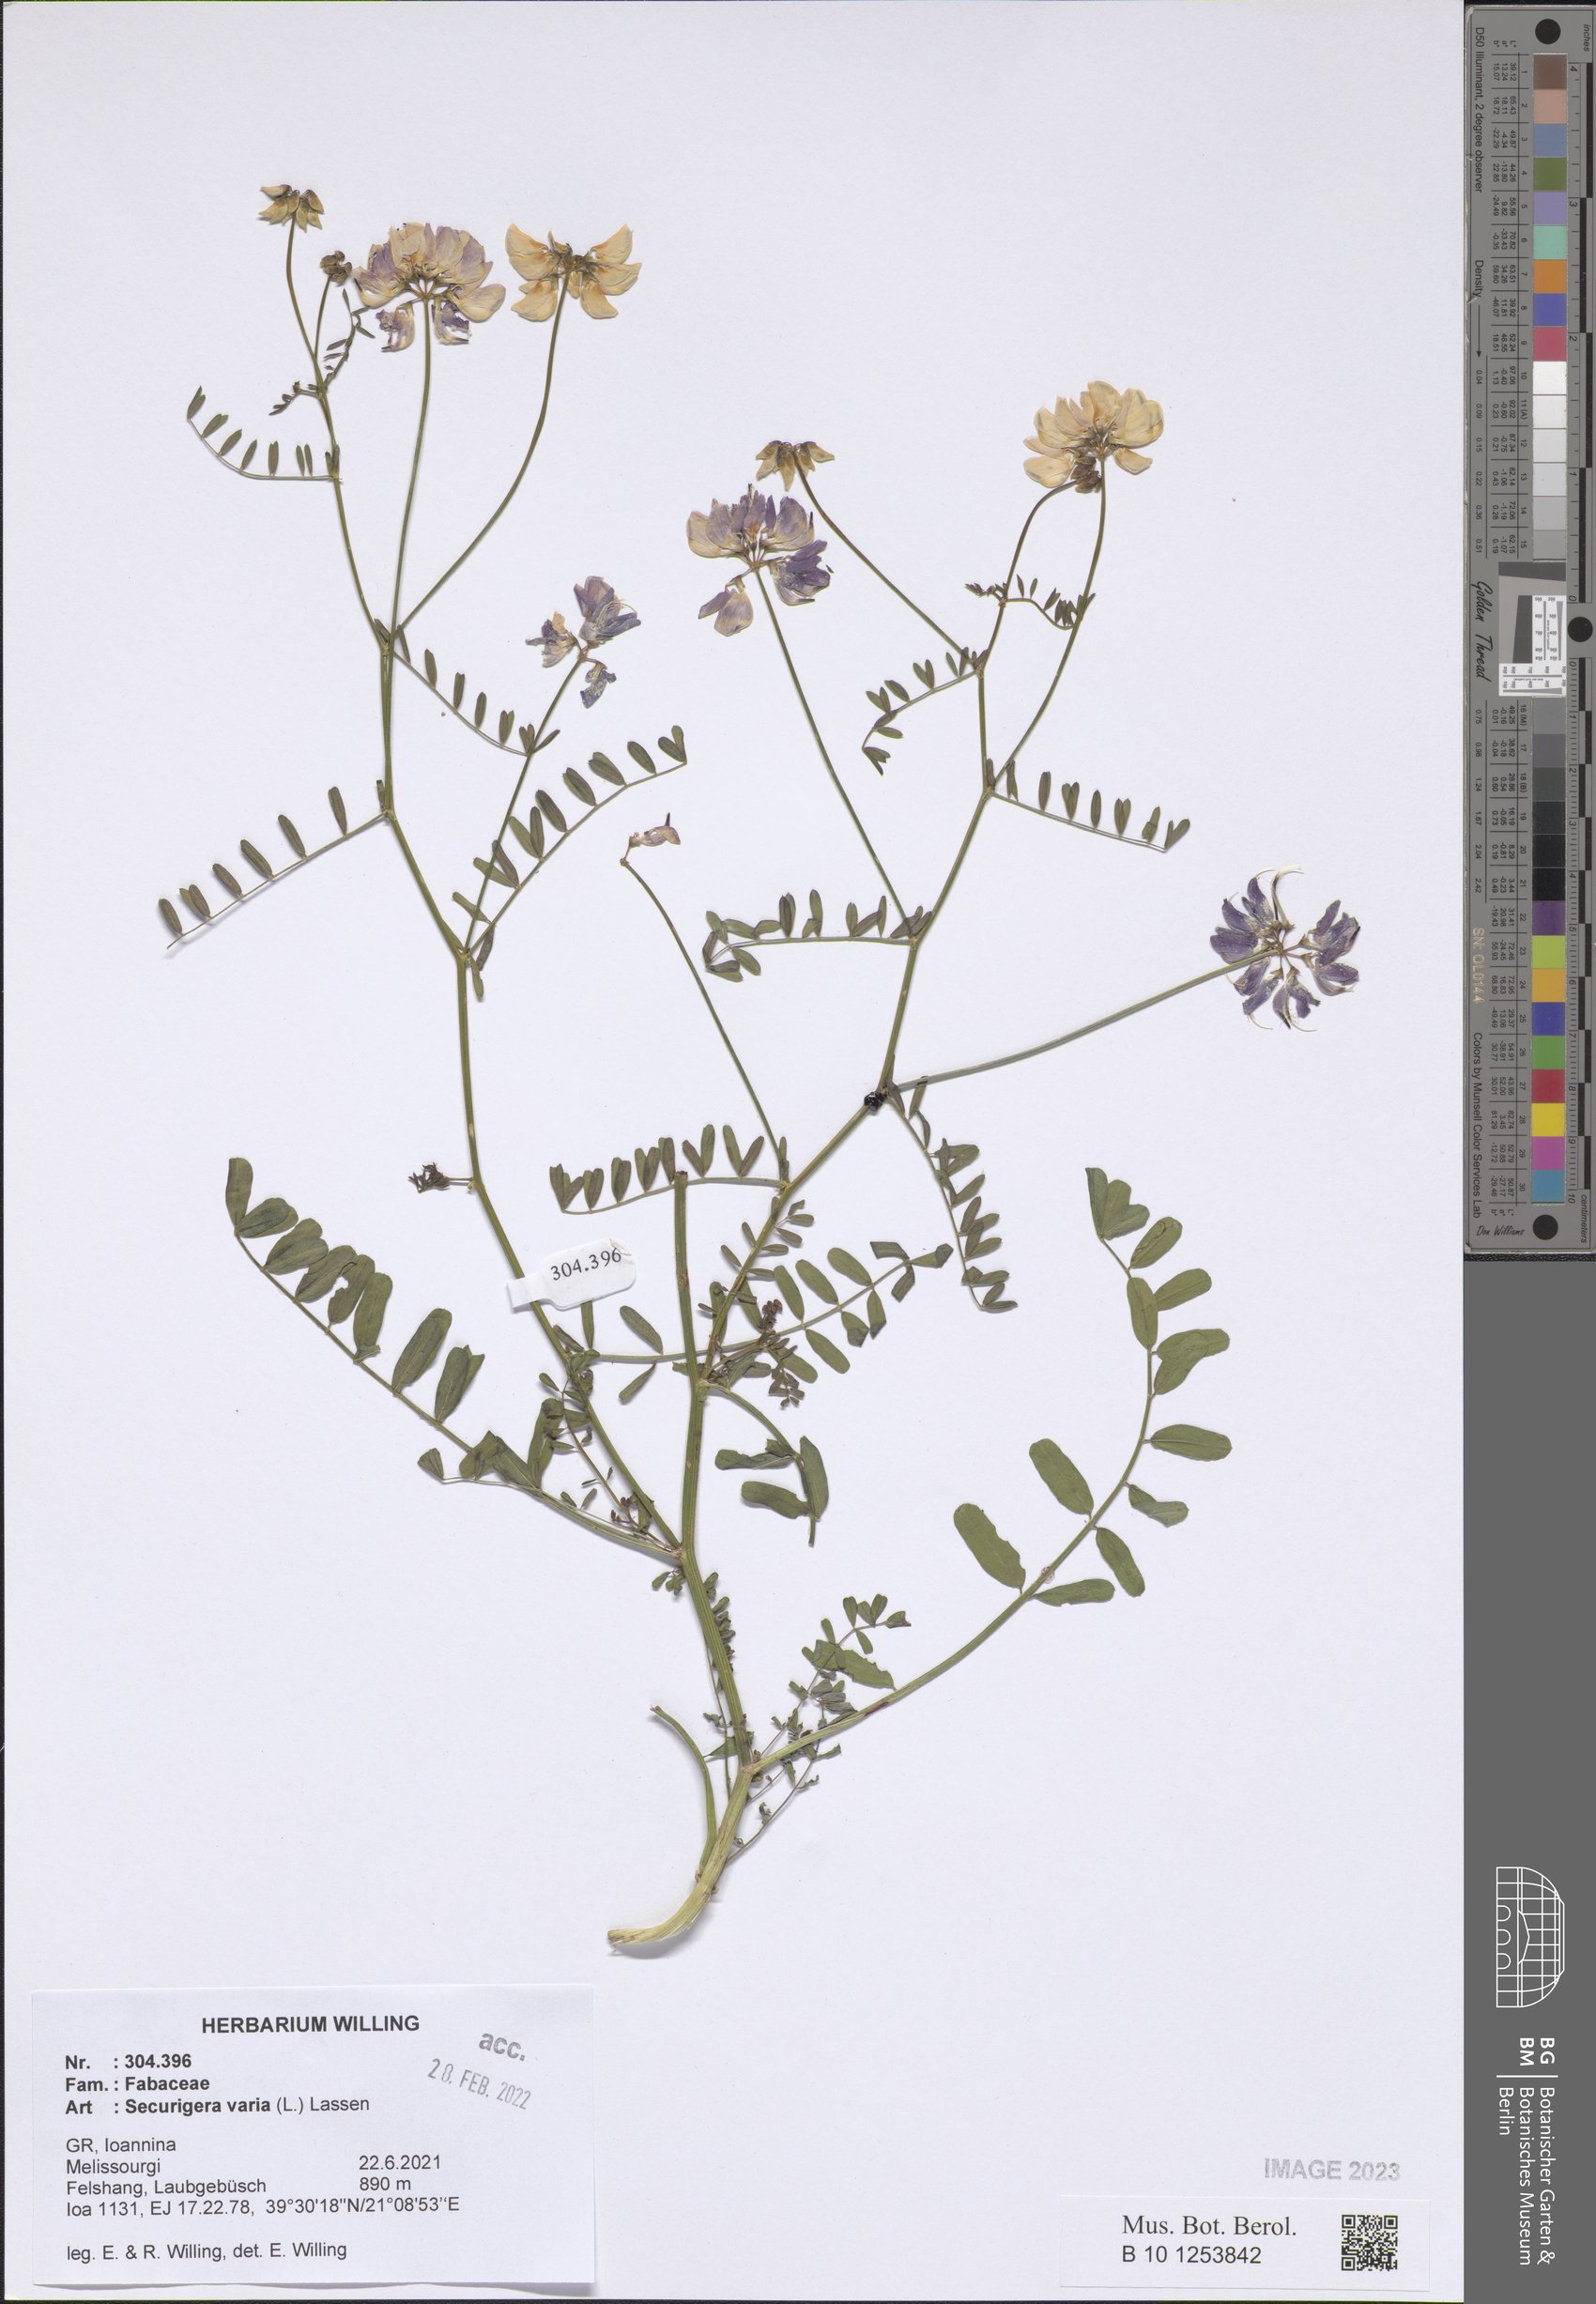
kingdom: Plantae
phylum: Tracheophyta
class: Magnoliopsida
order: Fabales
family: Fabaceae
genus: Coronilla
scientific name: Coronilla varia
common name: Crownvetch
